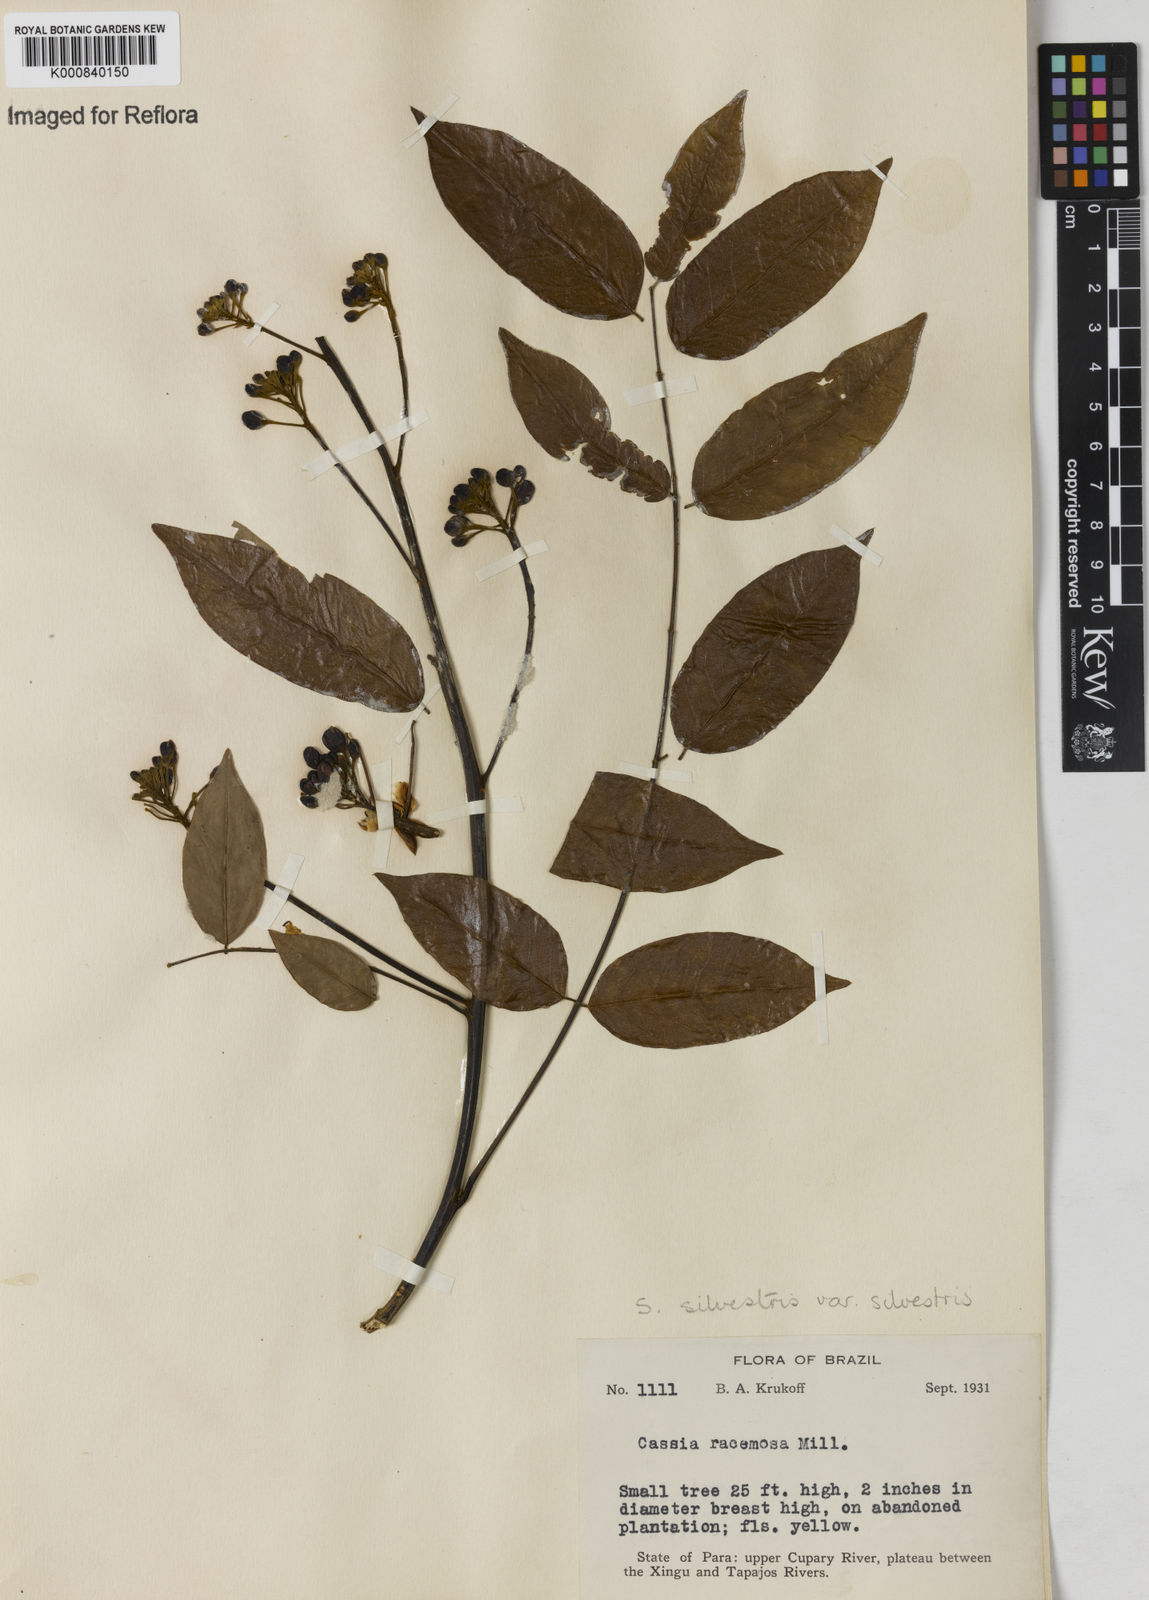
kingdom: Plantae
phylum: Tracheophyta
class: Magnoliopsida
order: Fabales
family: Fabaceae
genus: Senna
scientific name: Senna silvestris
